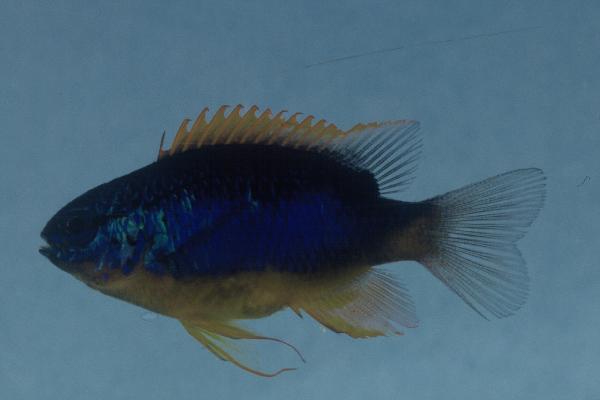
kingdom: Animalia
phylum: Chordata
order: Perciformes
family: Pomacentridae
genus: Chrysiptera
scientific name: Chrysiptera taupou
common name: Fiji damsel
